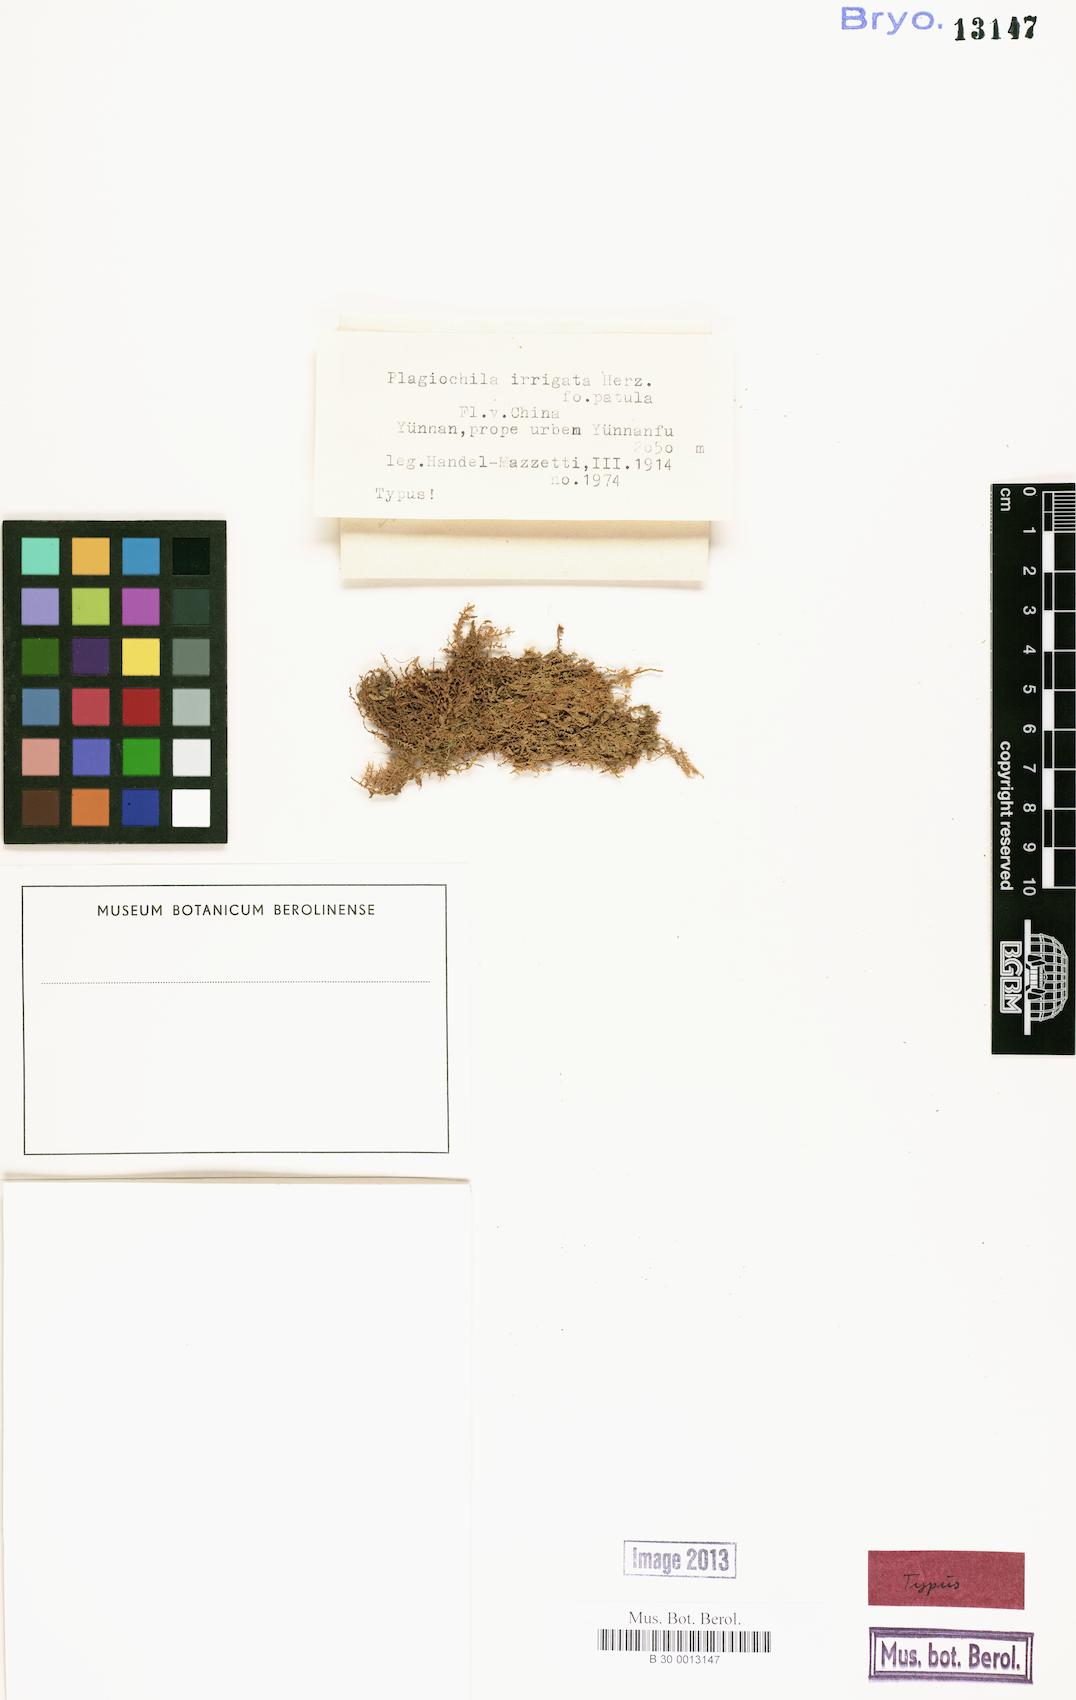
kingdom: Plantae
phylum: Marchantiophyta
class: Jungermanniopsida
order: Jungermanniales
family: Plagiochilaceae
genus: Plagiochila
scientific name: Plagiochila chinensis
